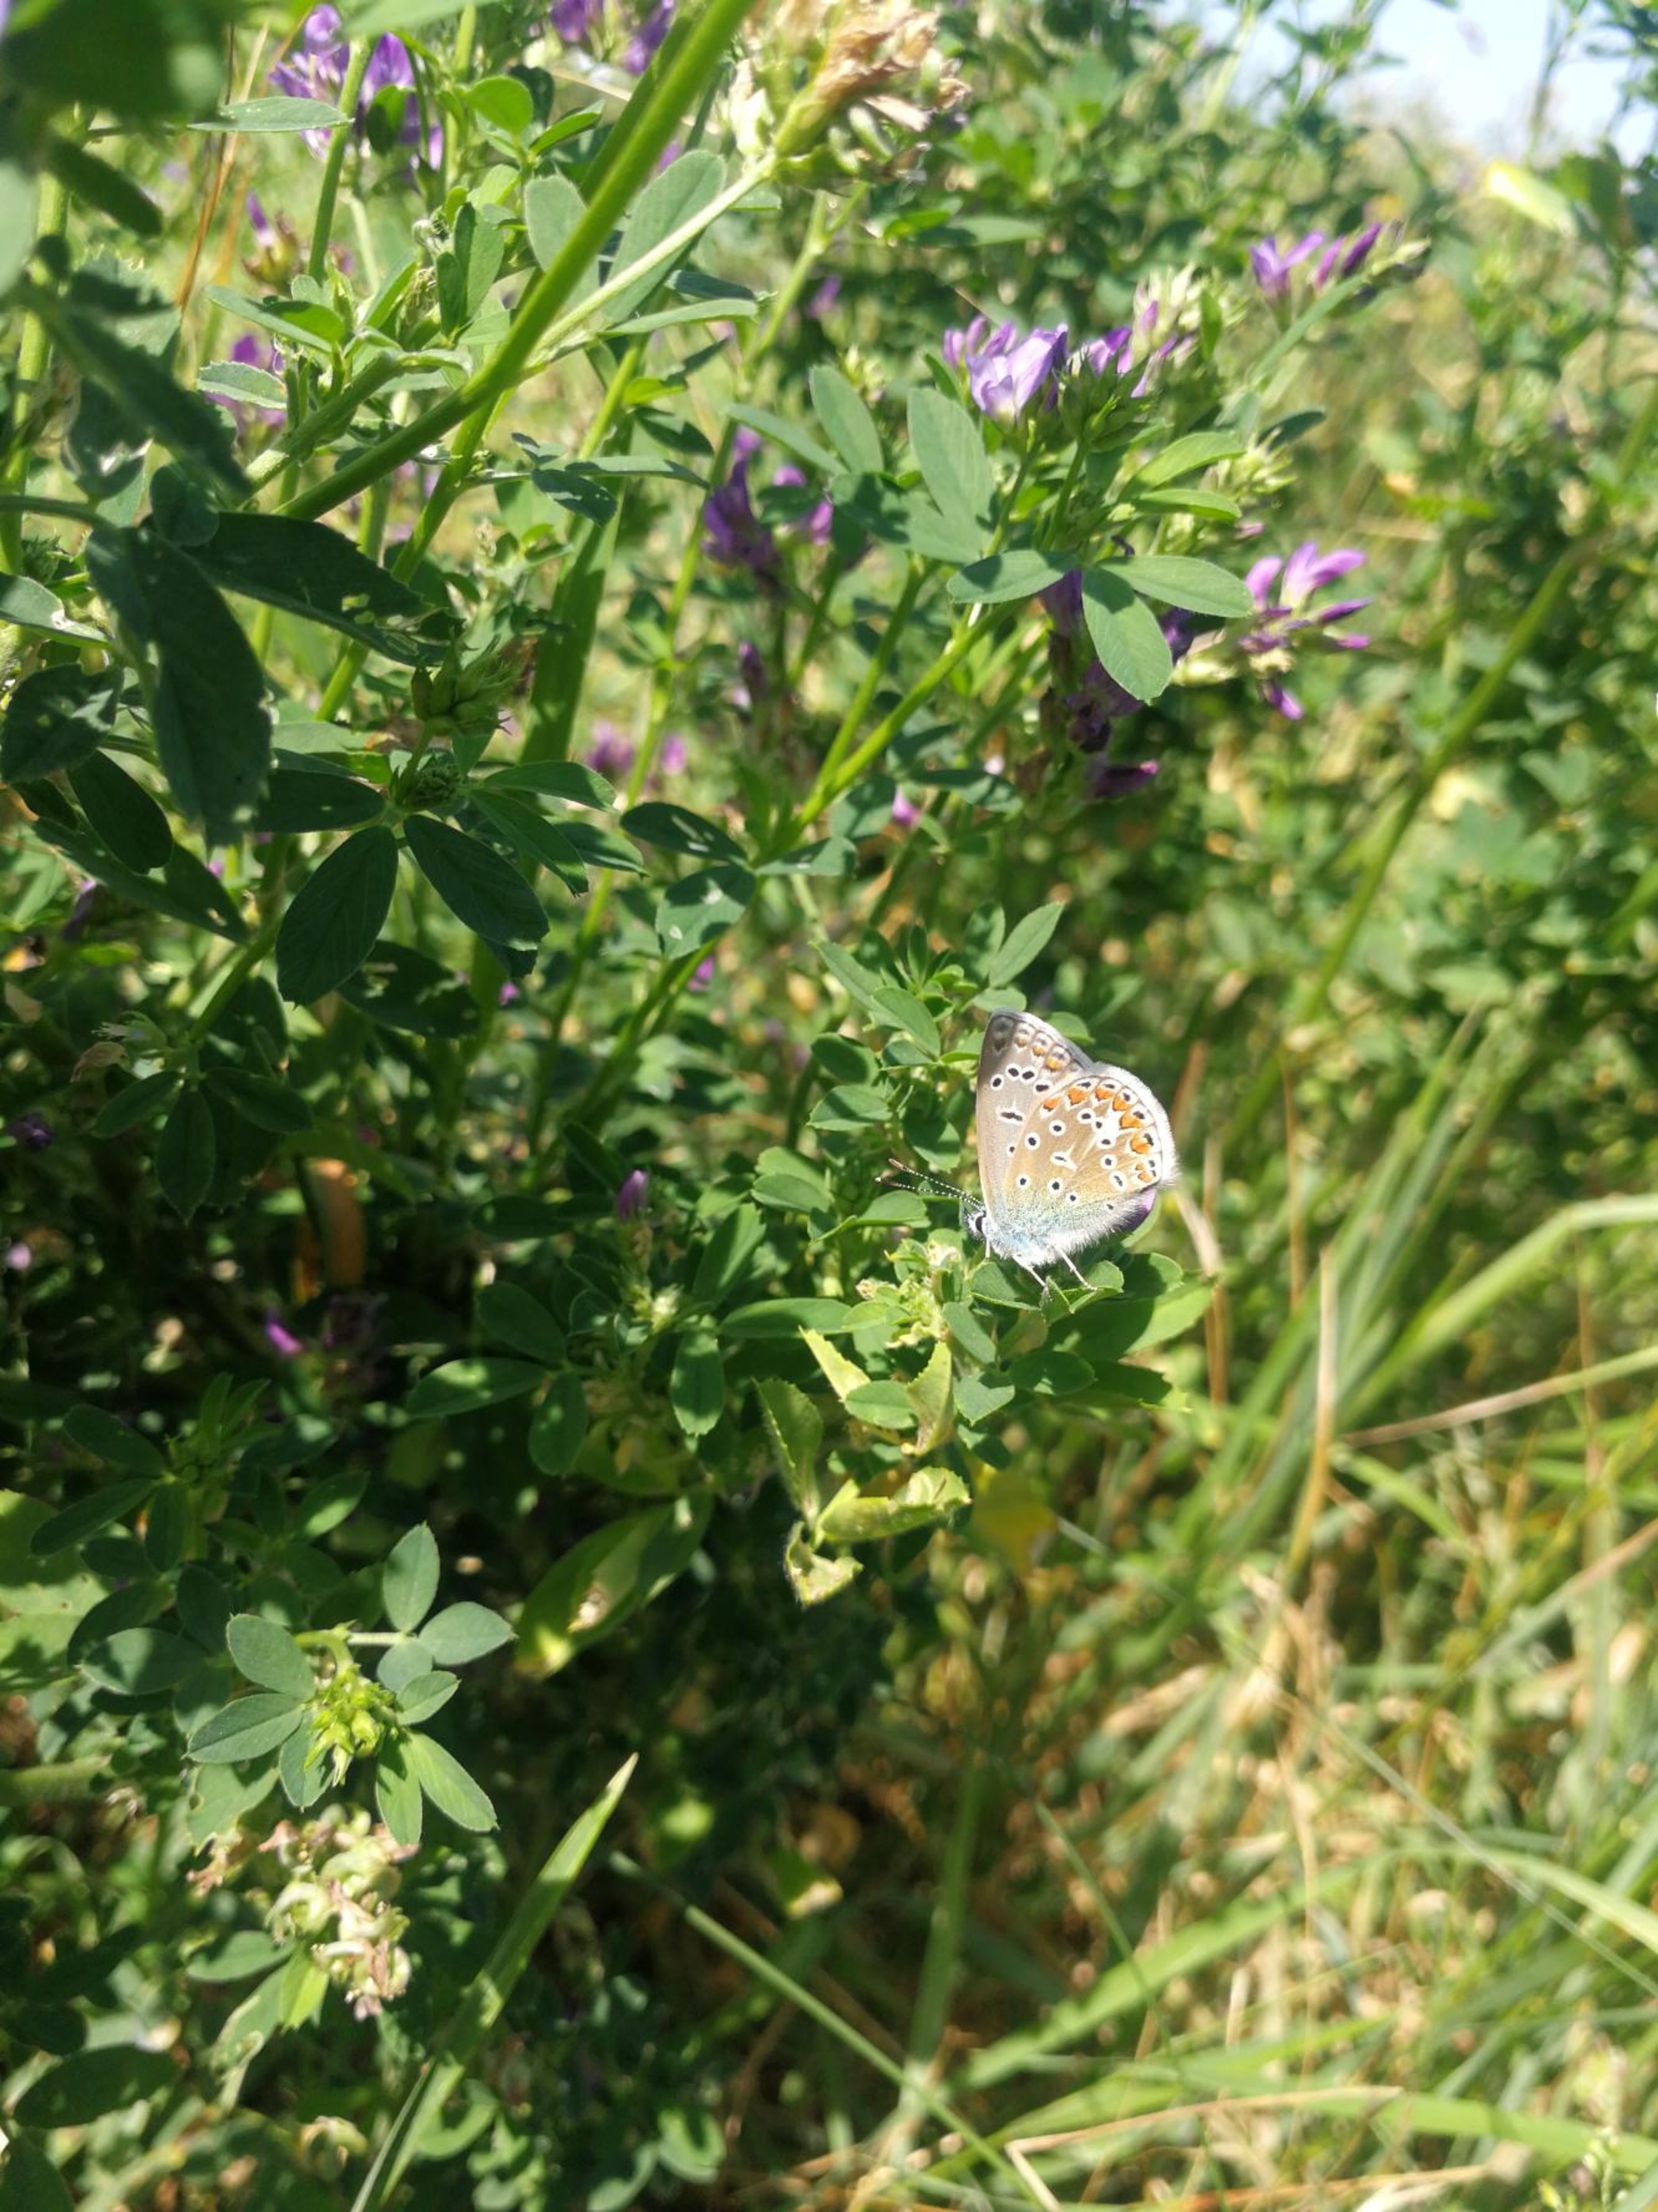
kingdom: Animalia
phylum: Arthropoda
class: Insecta
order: Lepidoptera
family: Lycaenidae
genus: Polyommatus
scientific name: Polyommatus icarus
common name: Almindelig blåfugl
